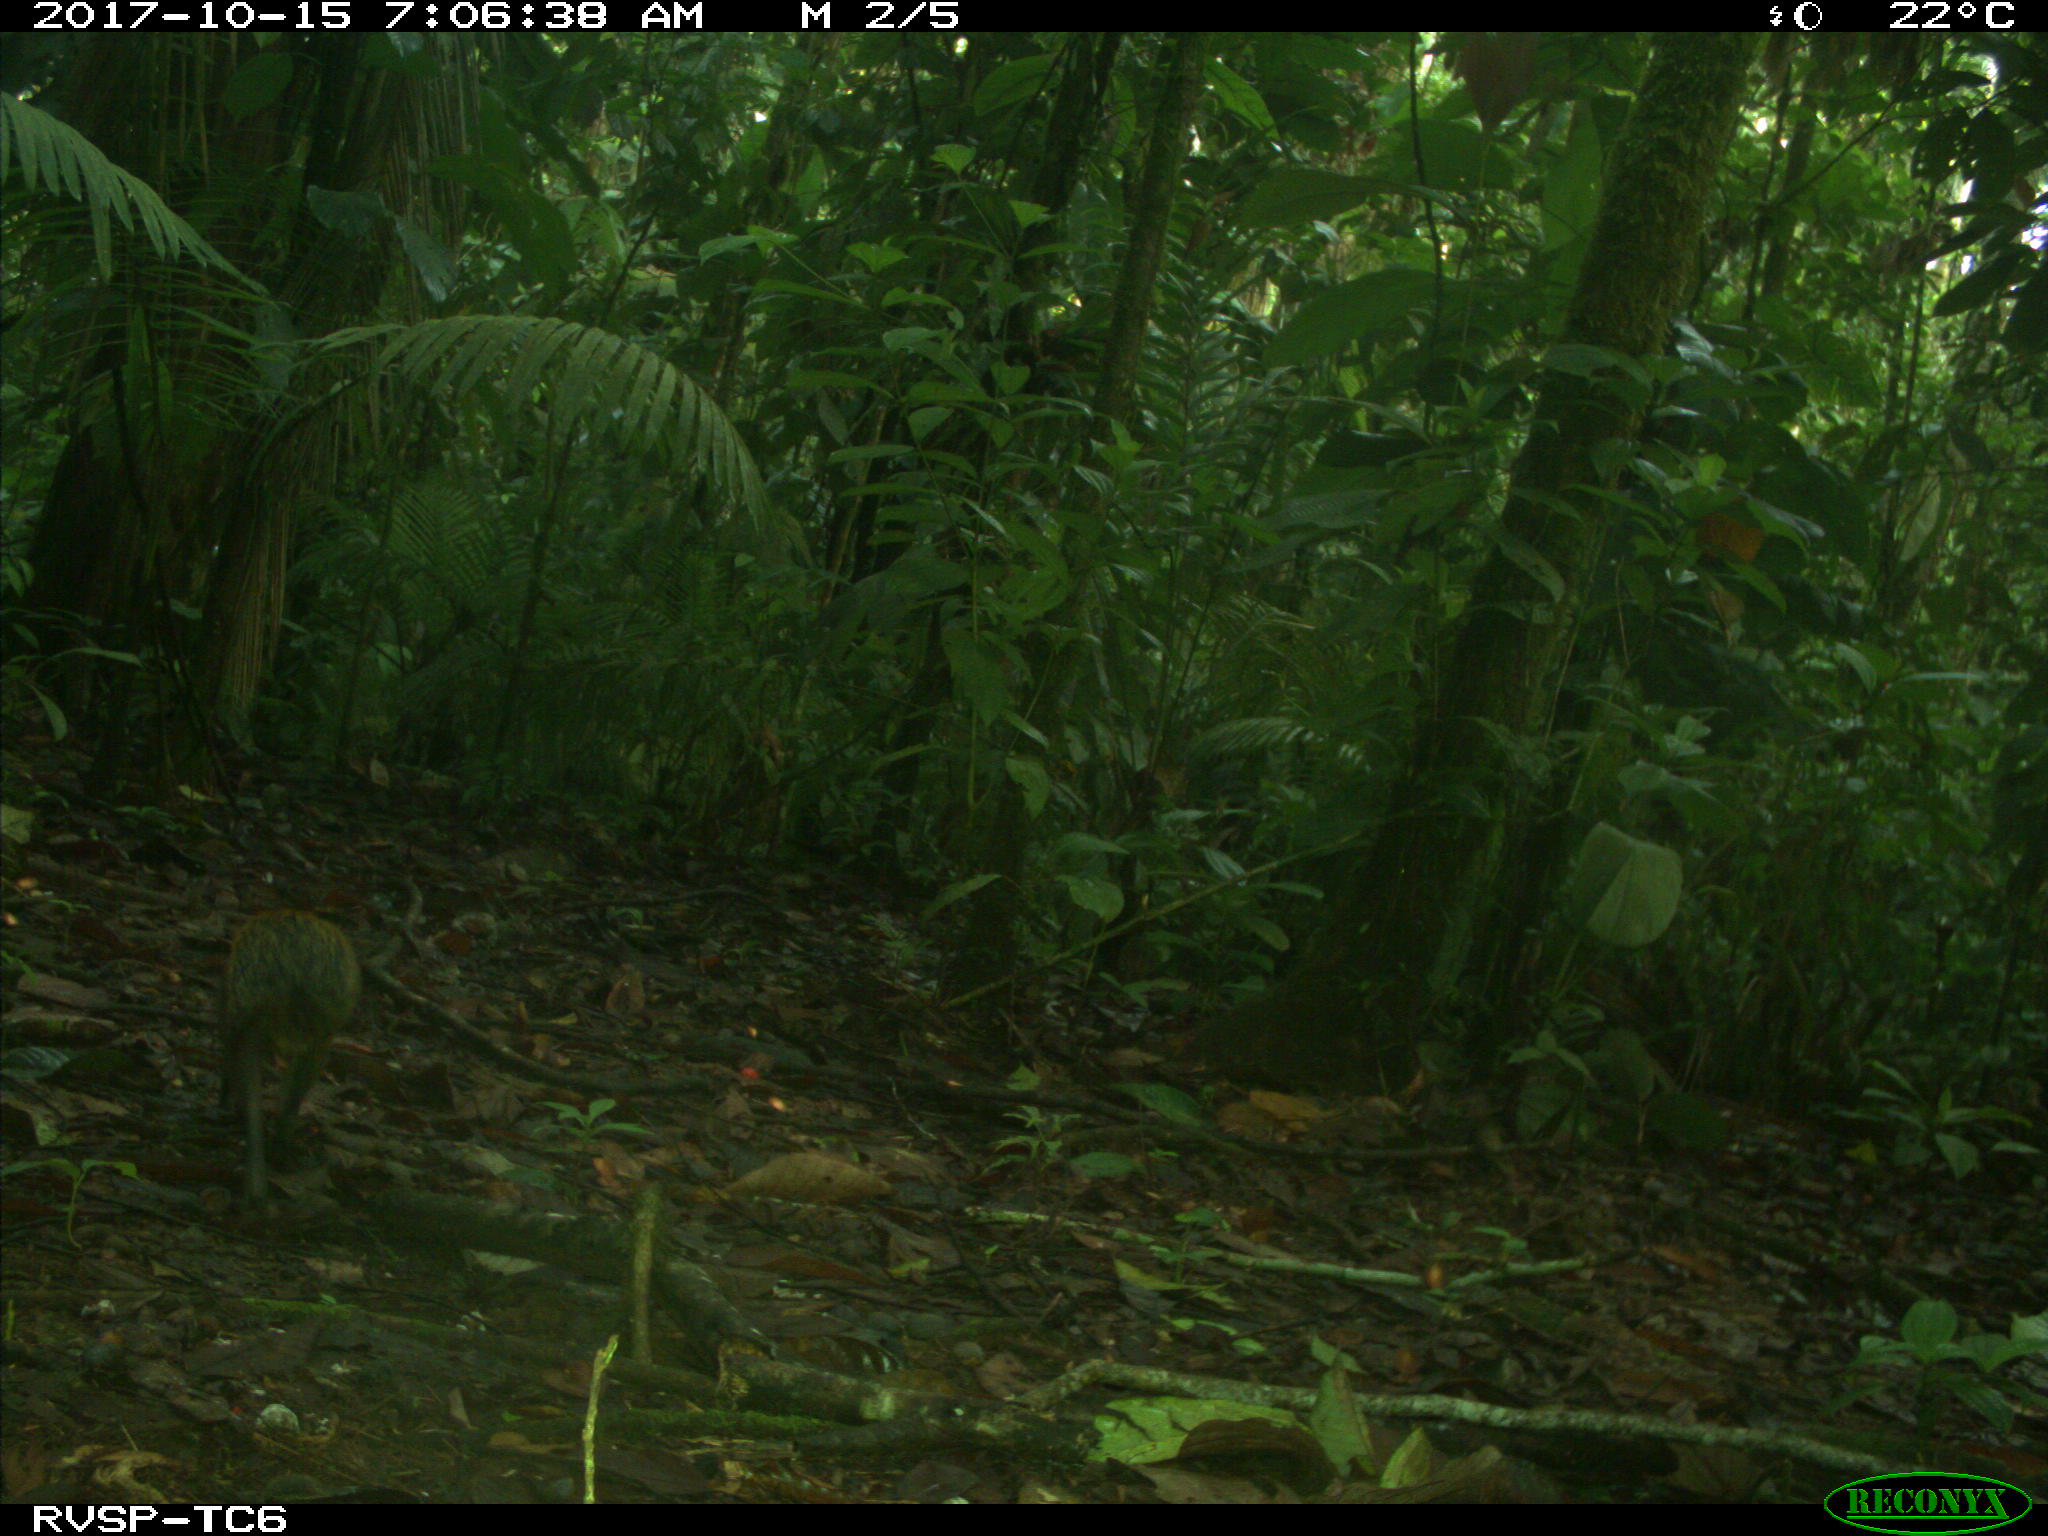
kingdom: Animalia
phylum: Chordata
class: Mammalia
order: Rodentia
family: Dasyproctidae
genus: Dasyprocta
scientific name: Dasyprocta punctata
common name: Central american agouti
